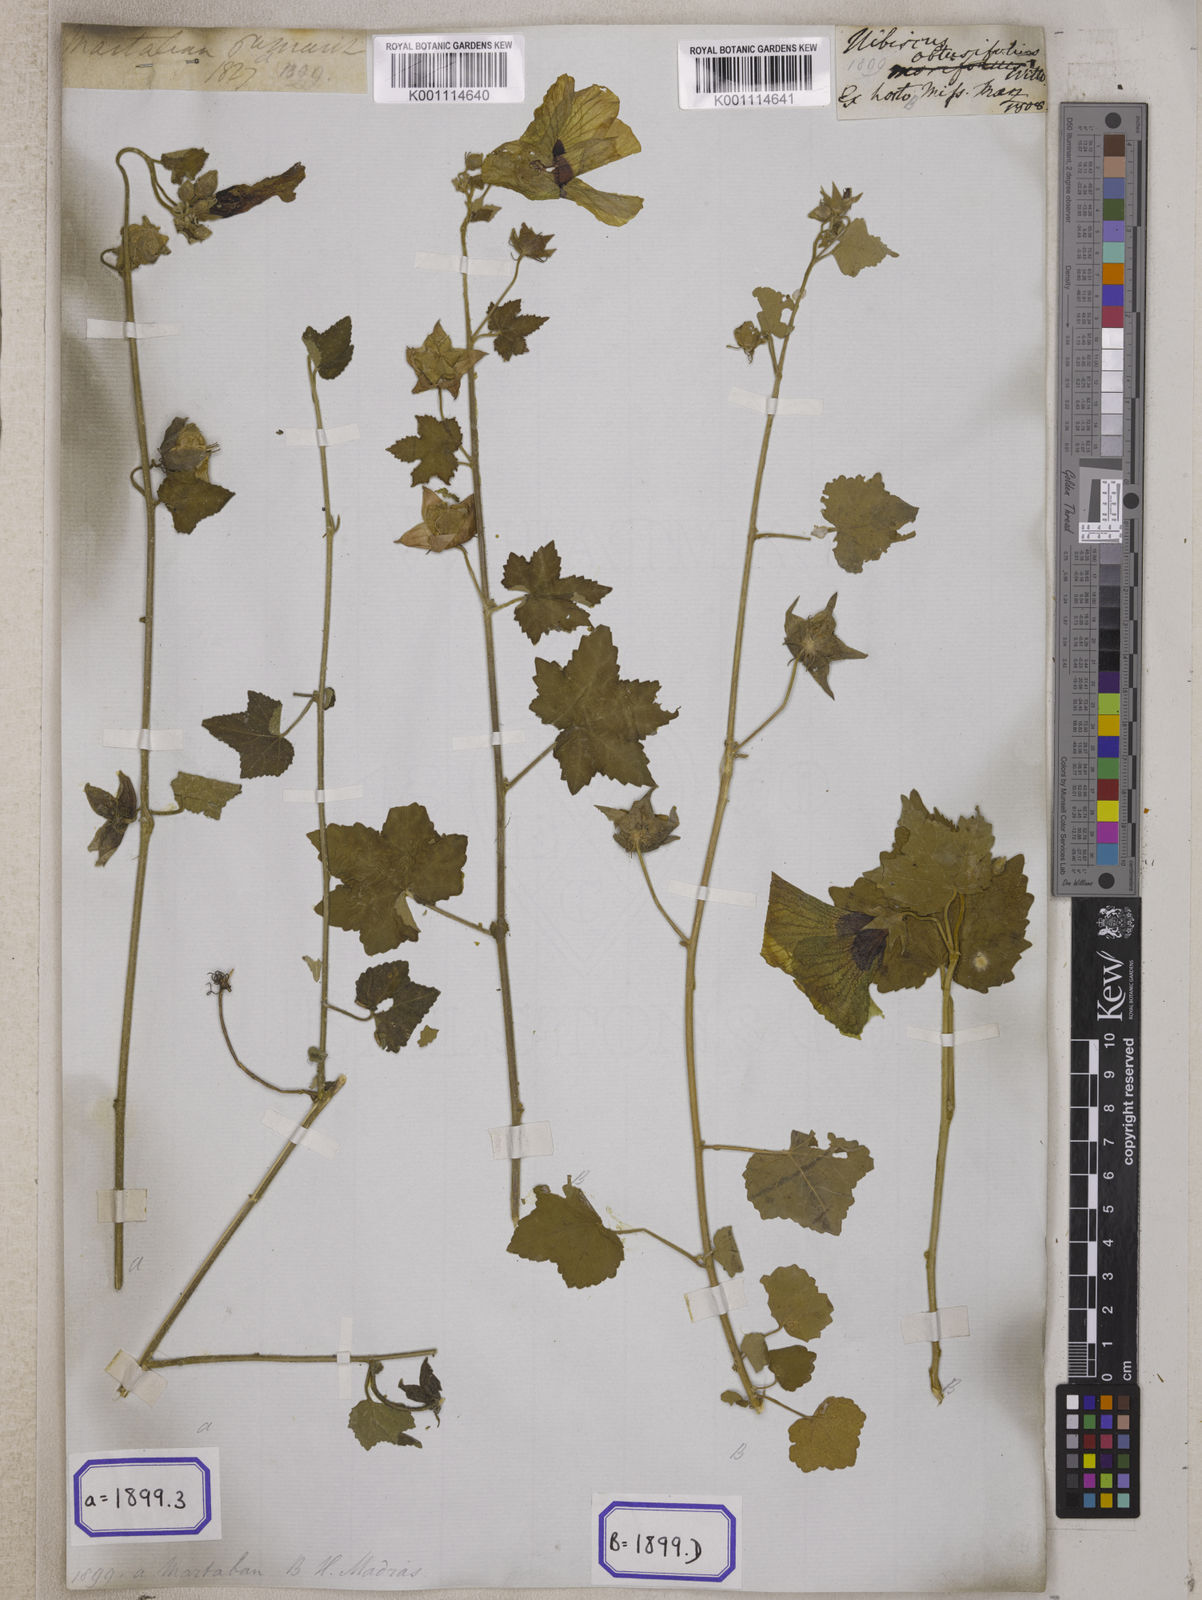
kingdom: Plantae
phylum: Tracheophyta
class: Magnoliopsida
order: Malvales
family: Malvaceae
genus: Hibiscus
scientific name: Hibiscus vitifolius
